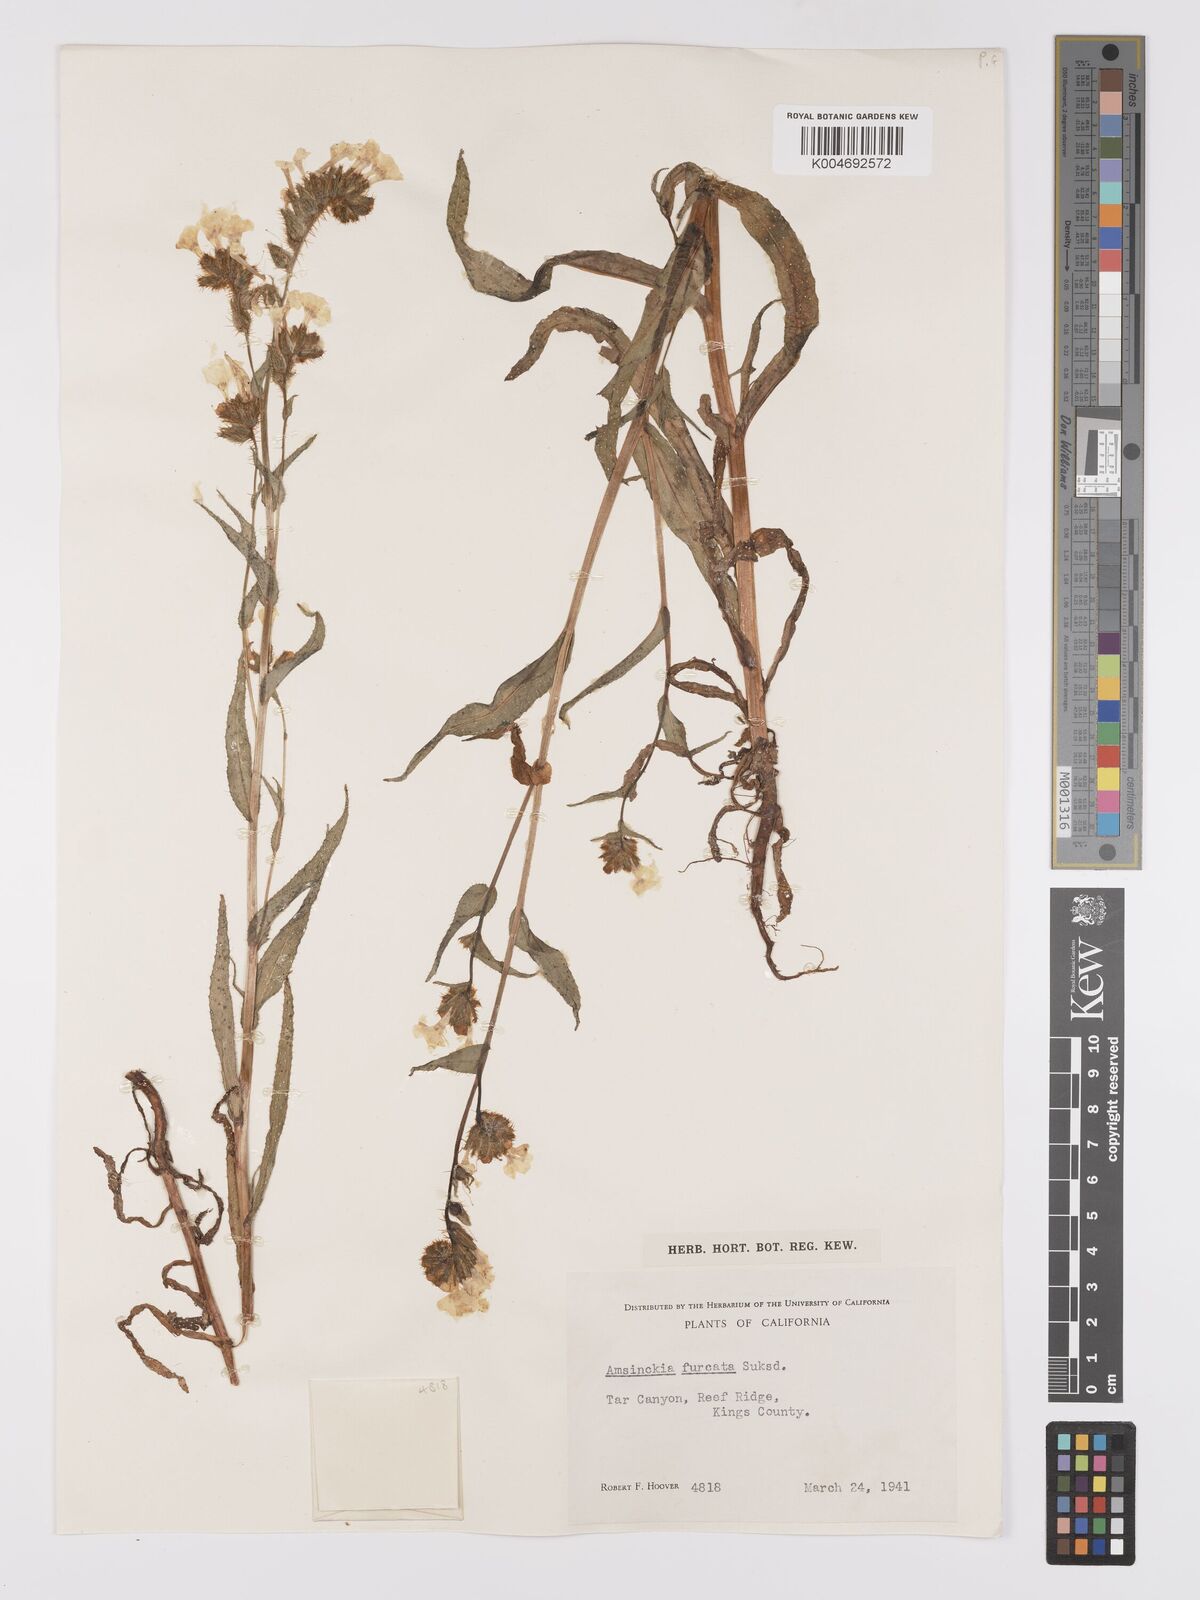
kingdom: Plantae
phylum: Tracheophyta
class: Magnoliopsida
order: Boraginales
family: Boraginaceae
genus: Amsinckia
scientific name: Amsinckia vernicosa
